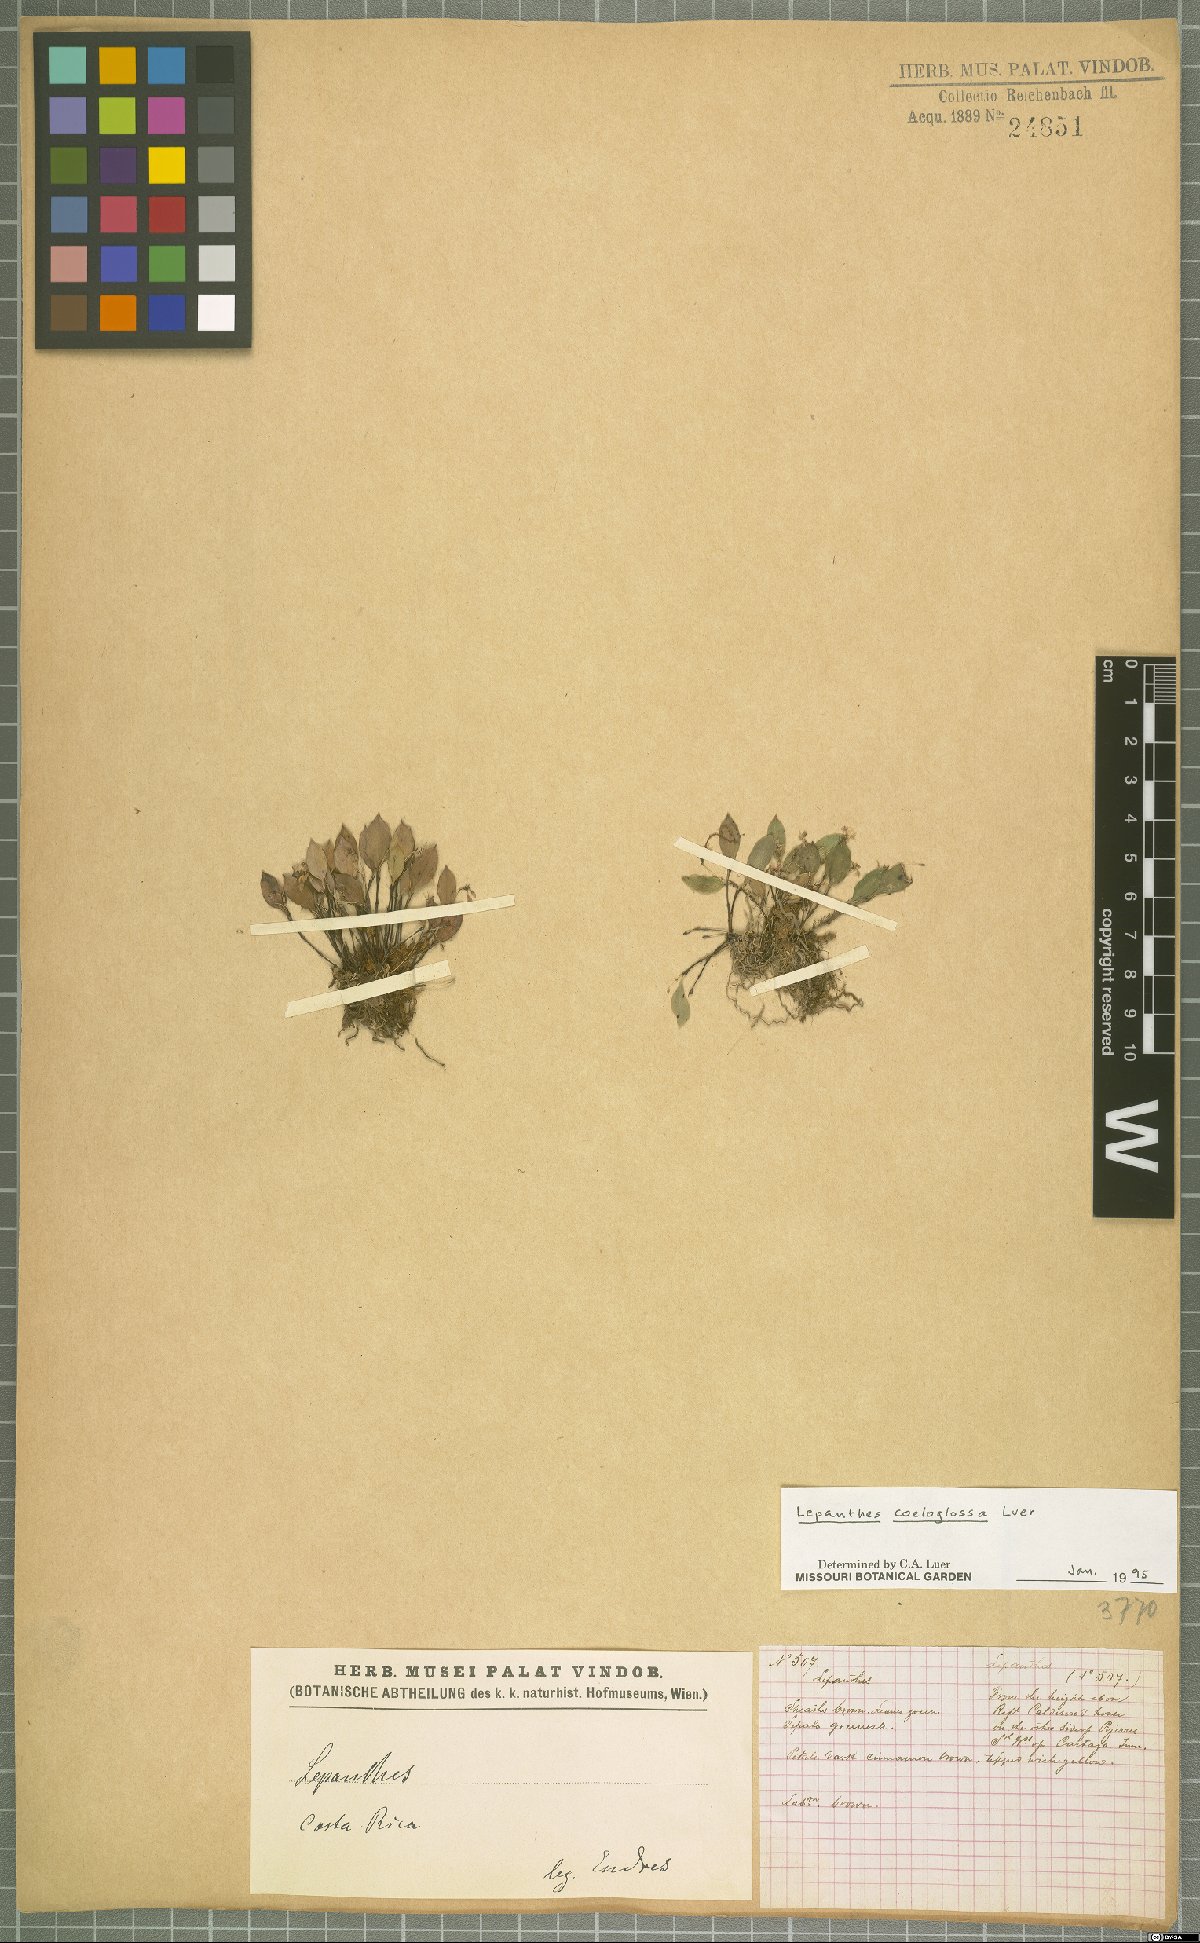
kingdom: Plantae
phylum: Tracheophyta
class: Liliopsida
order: Asparagales
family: Orchidaceae
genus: Lepanthes
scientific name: Lepanthes coeloglossa
